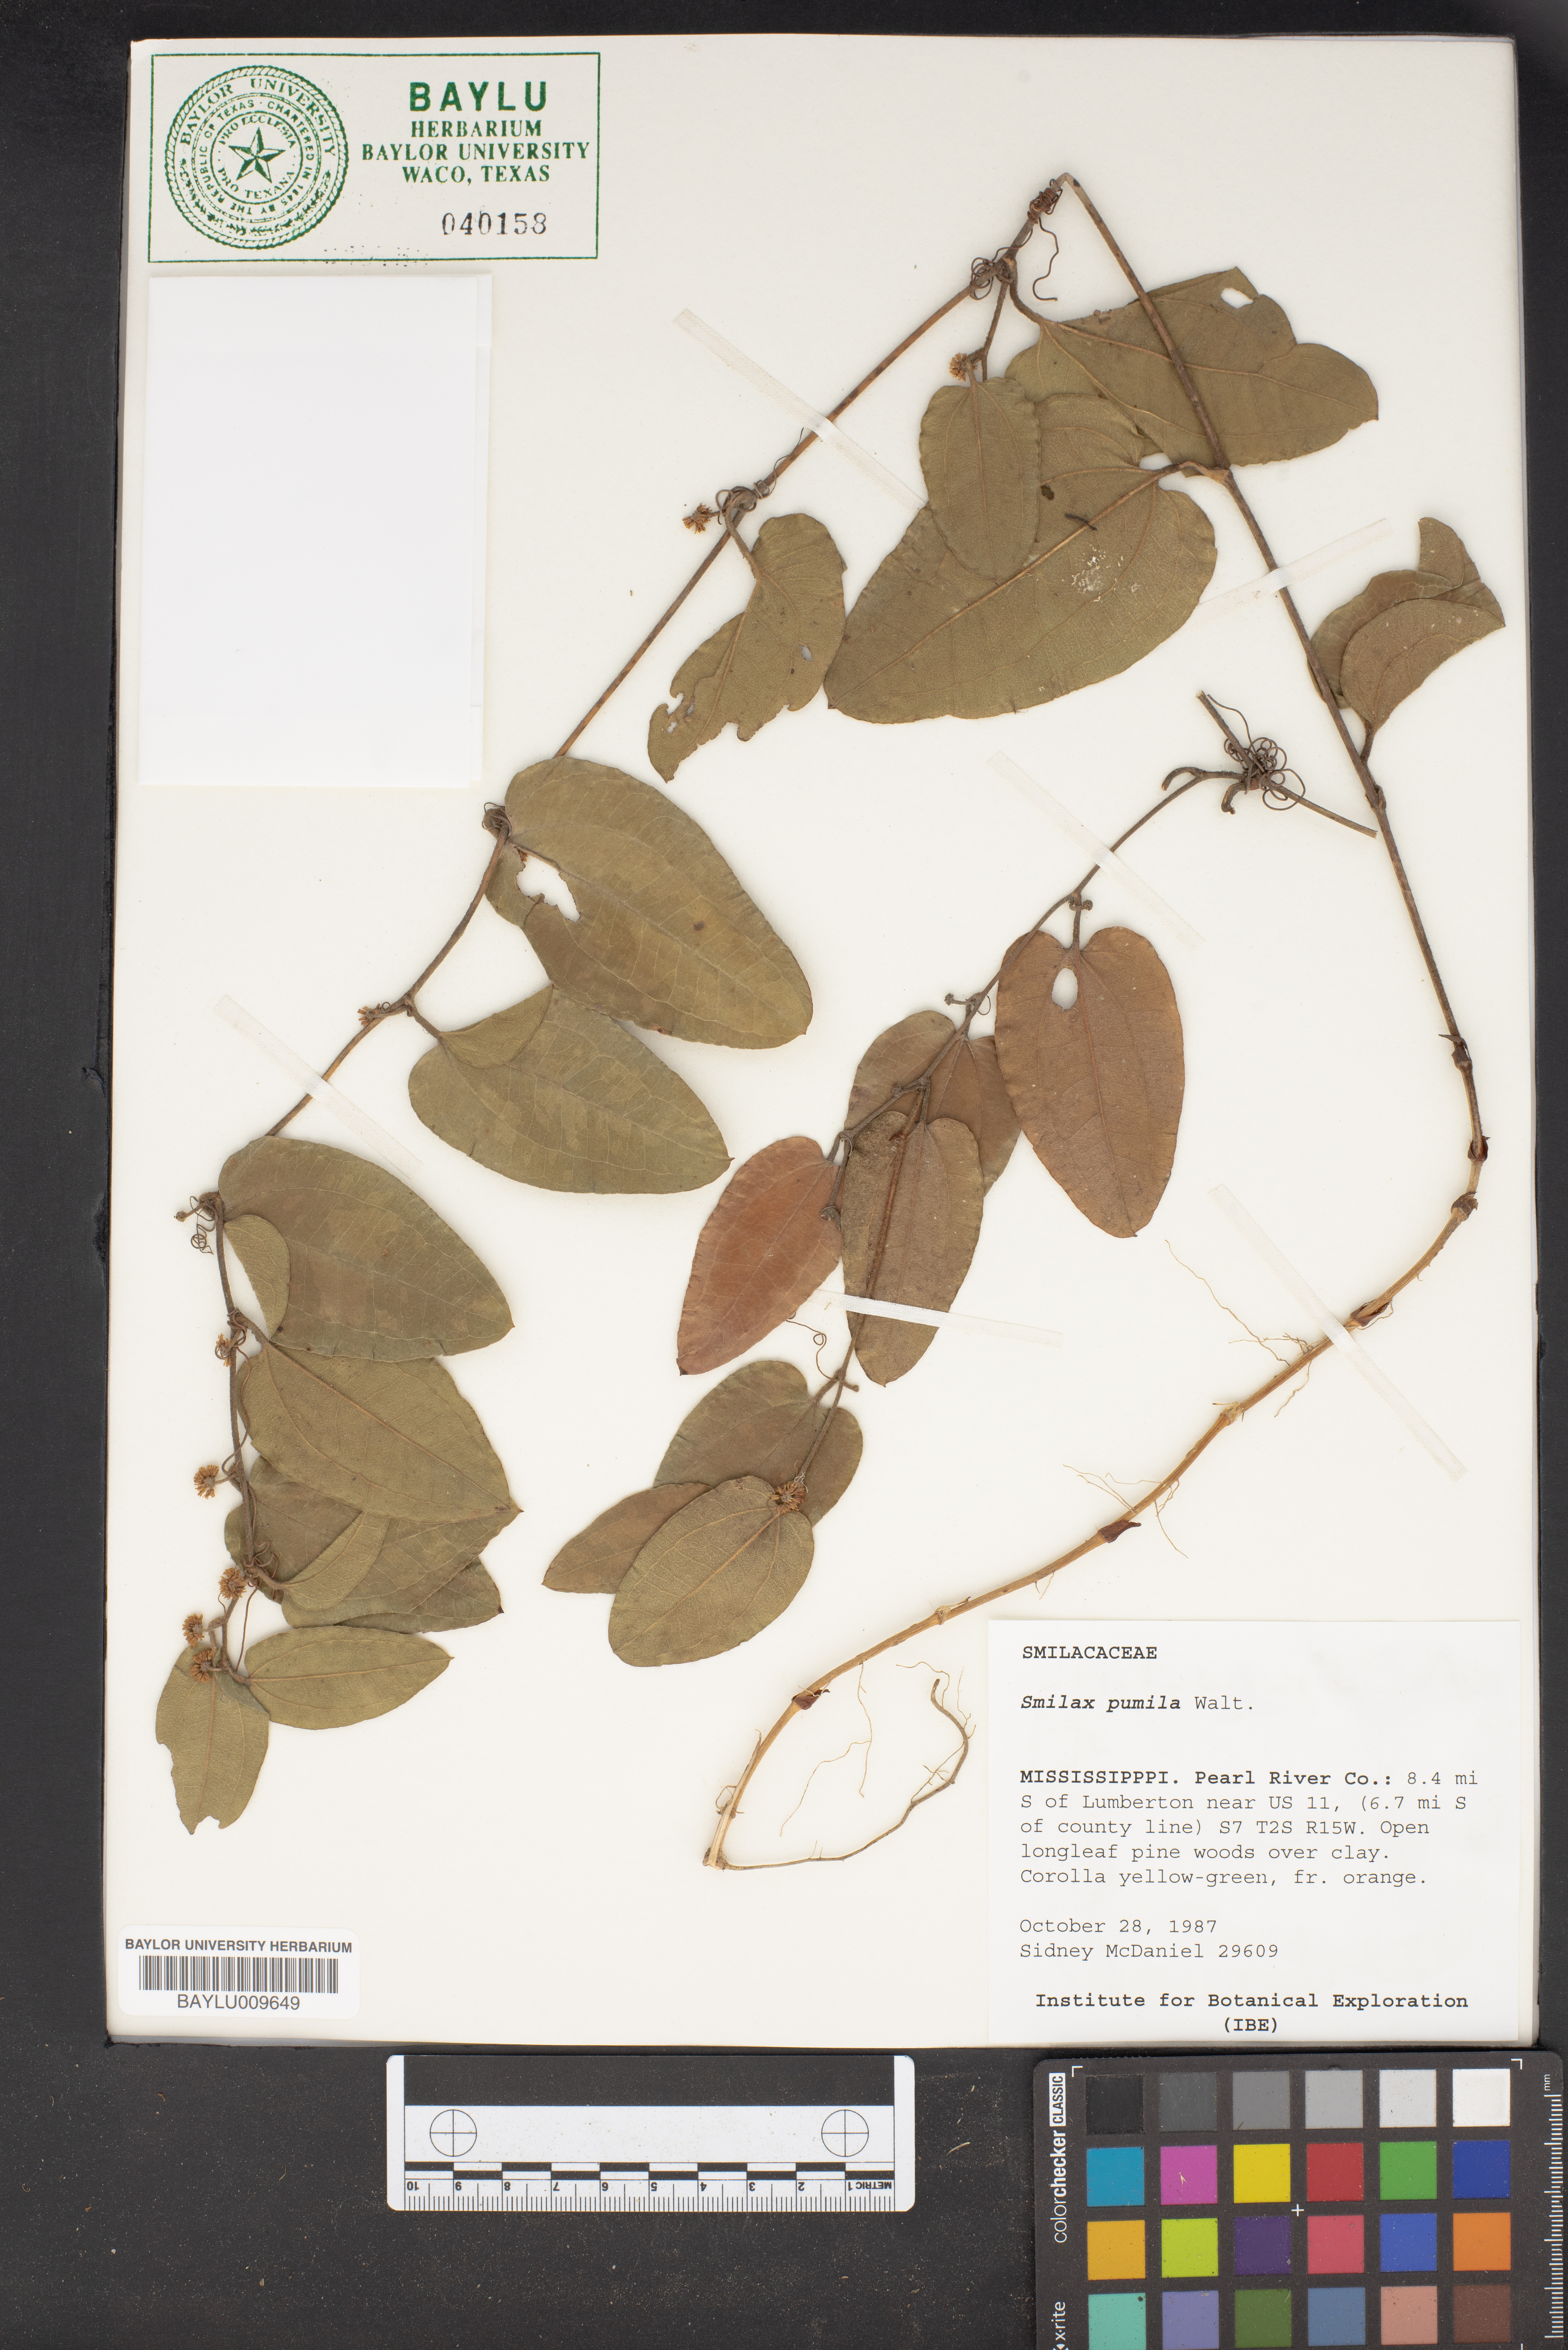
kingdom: Plantae
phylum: Tracheophyta
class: Liliopsida
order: Liliales
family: Smilacaceae
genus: Smilax
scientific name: Smilax pumila
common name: Sarsaparilla-vine
